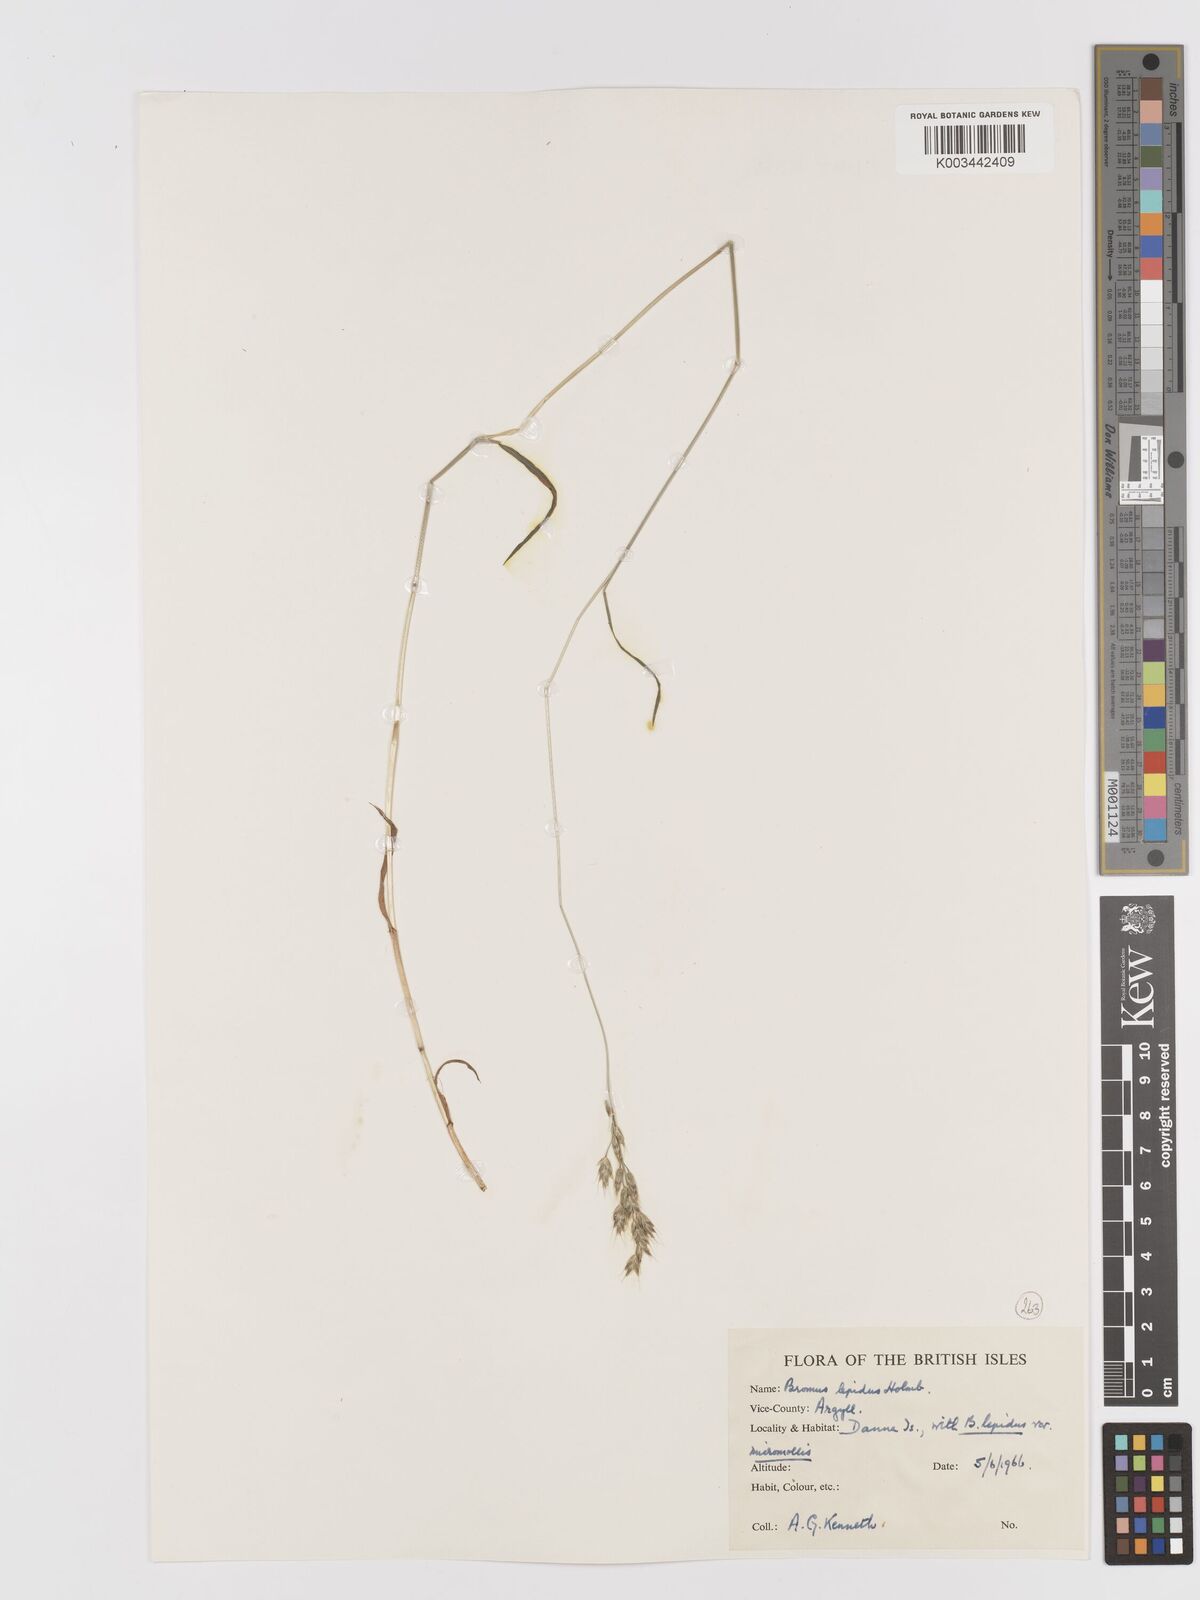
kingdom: Plantae
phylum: Tracheophyta
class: Liliopsida
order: Poales
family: Poaceae
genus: Bromus
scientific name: Bromus lepidus
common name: Slender soft-brome
